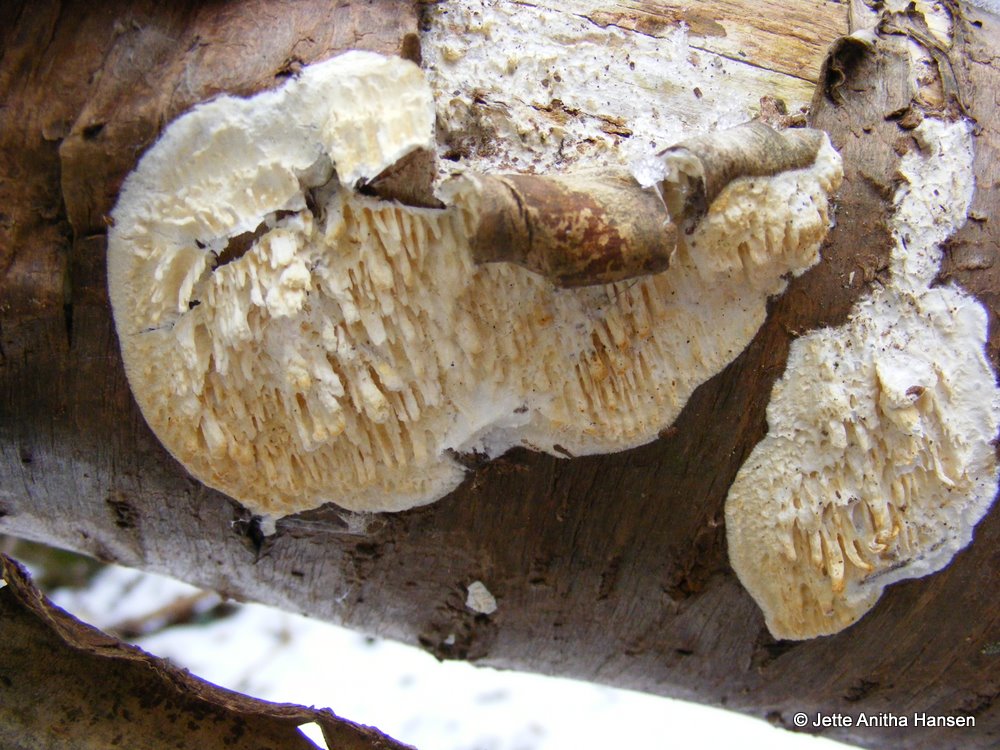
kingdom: Fungi
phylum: Basidiomycota
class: Agaricomycetes
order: Hymenochaetales
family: Schizoporaceae
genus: Xylodon
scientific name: Xylodon radula
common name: grovtandet kalkskind
